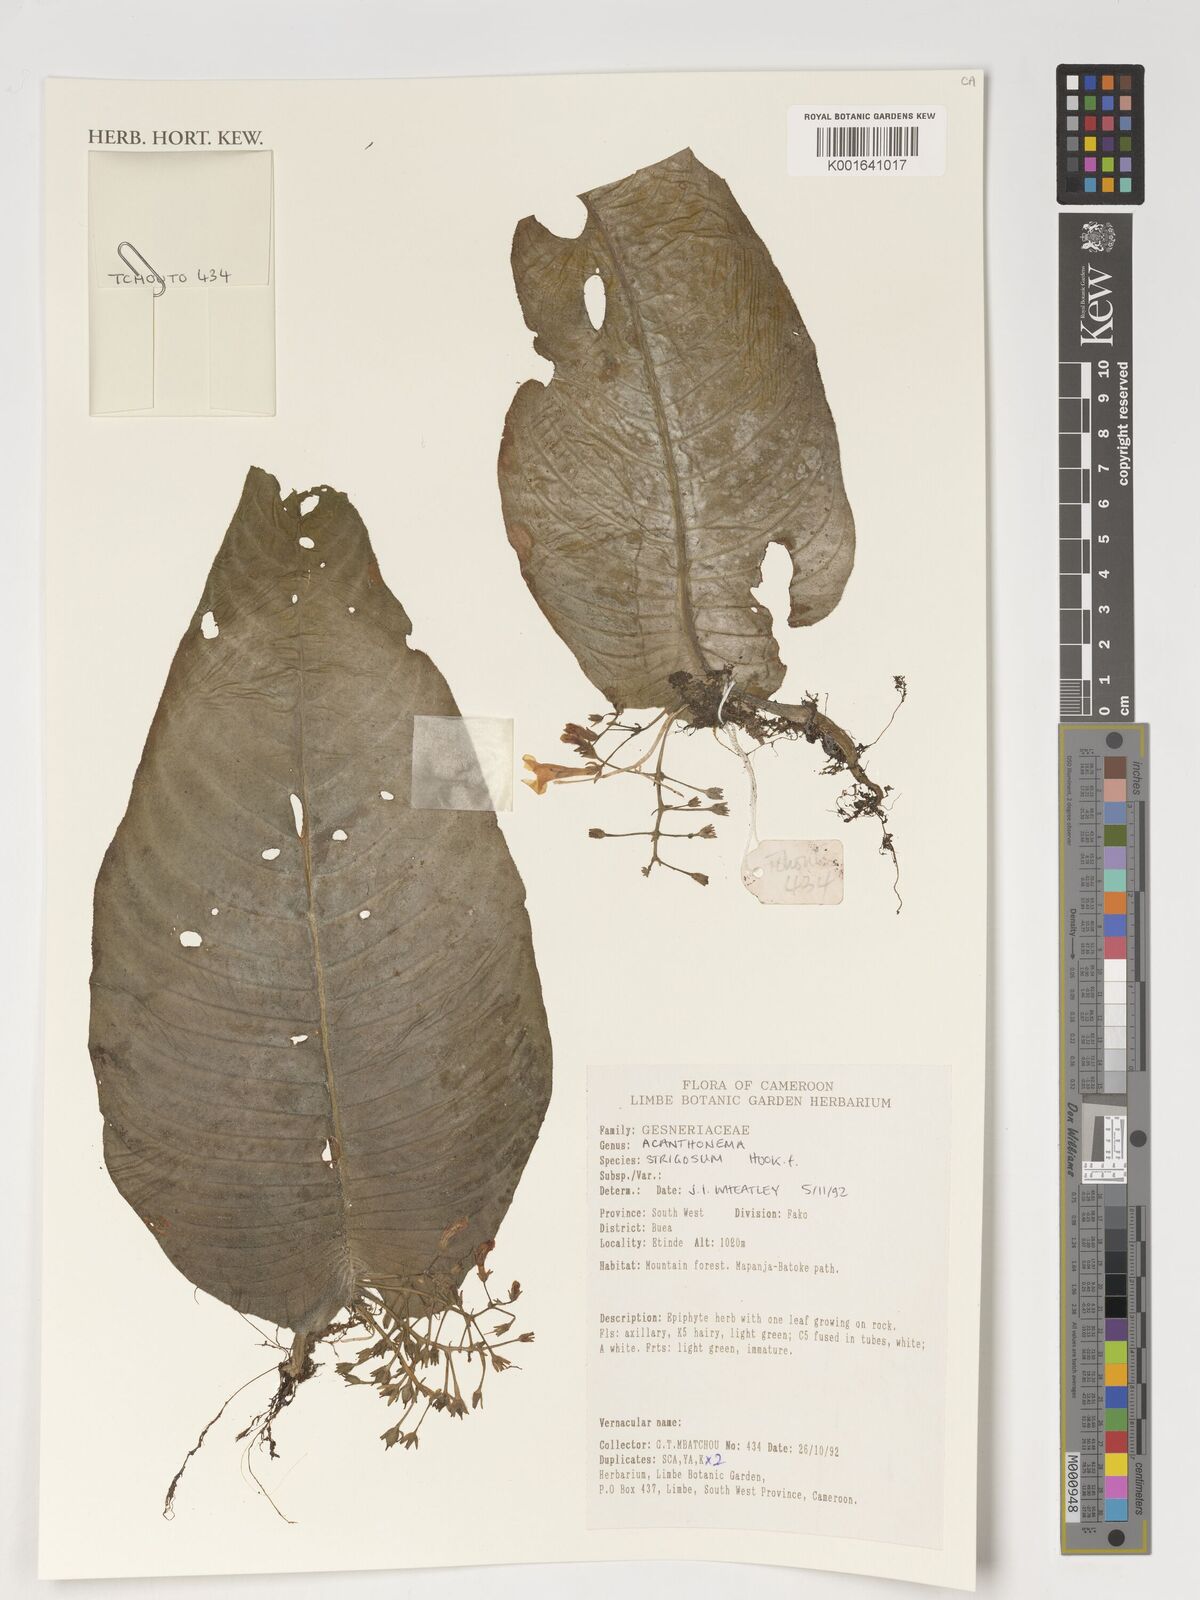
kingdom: Plantae
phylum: Tracheophyta
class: Magnoliopsida
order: Lamiales
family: Gesneriaceae
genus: Streptocarpus
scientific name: Streptocarpus strigosus
